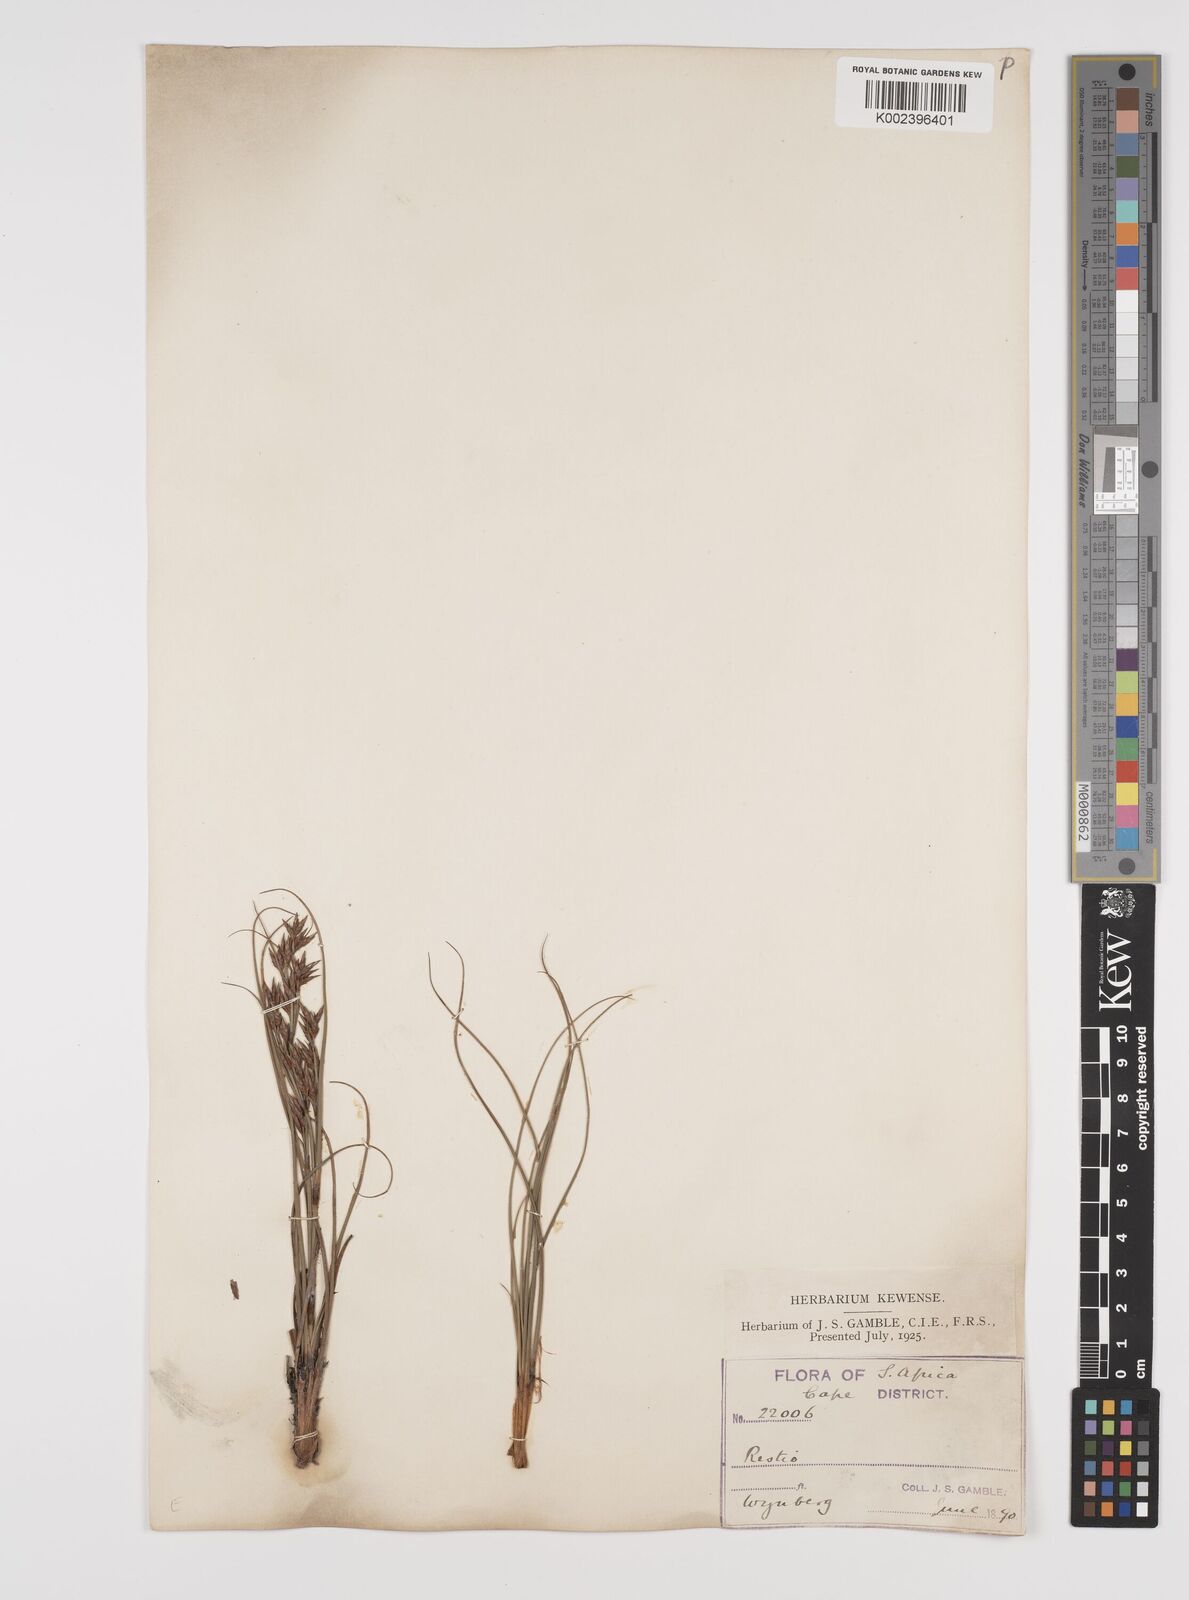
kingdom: Plantae
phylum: Tracheophyta
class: Liliopsida
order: Poales
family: Cyperaceae
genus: Tetraria
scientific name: Tetraria
